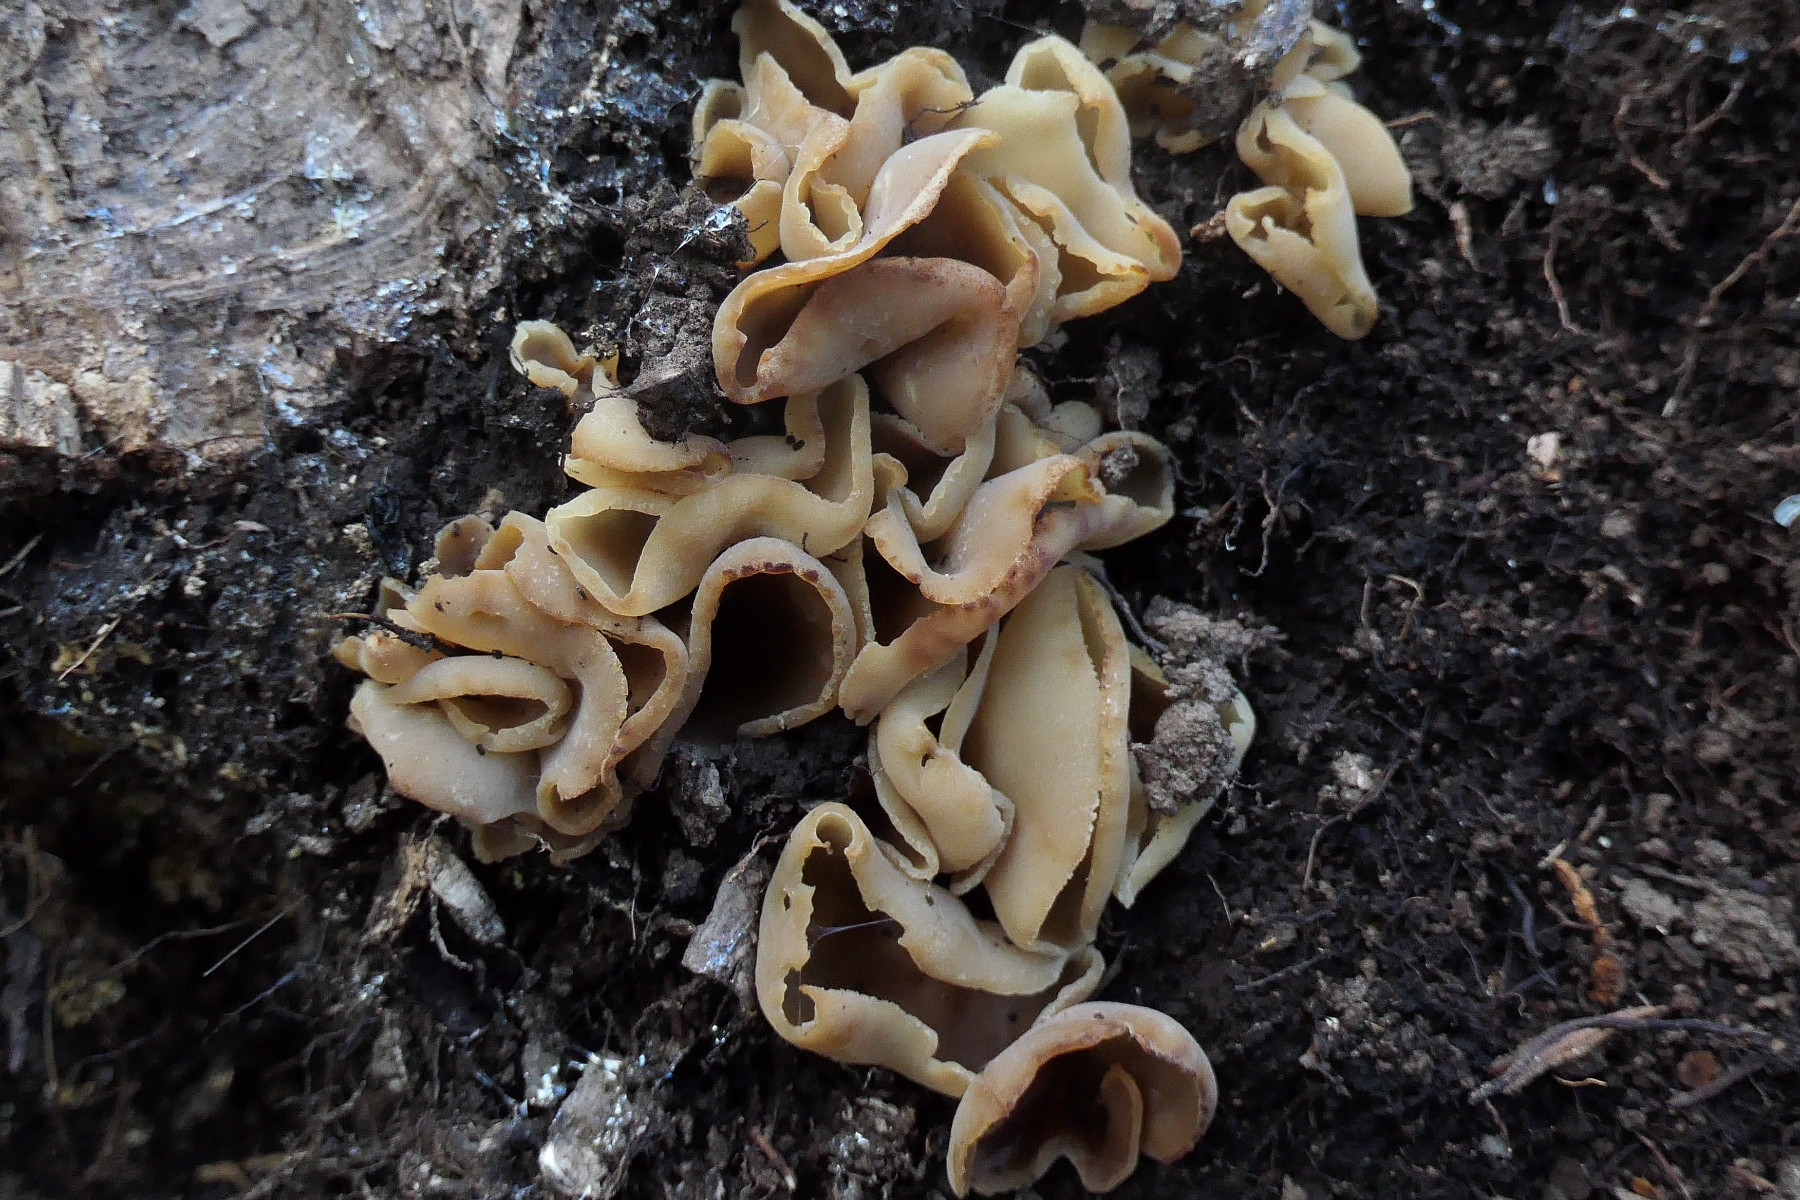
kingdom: Fungi
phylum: Ascomycota
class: Pezizomycetes
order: Pezizales
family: Pezizaceae
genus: Peziza
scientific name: Peziza varia
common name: Ved-bægersvamp
